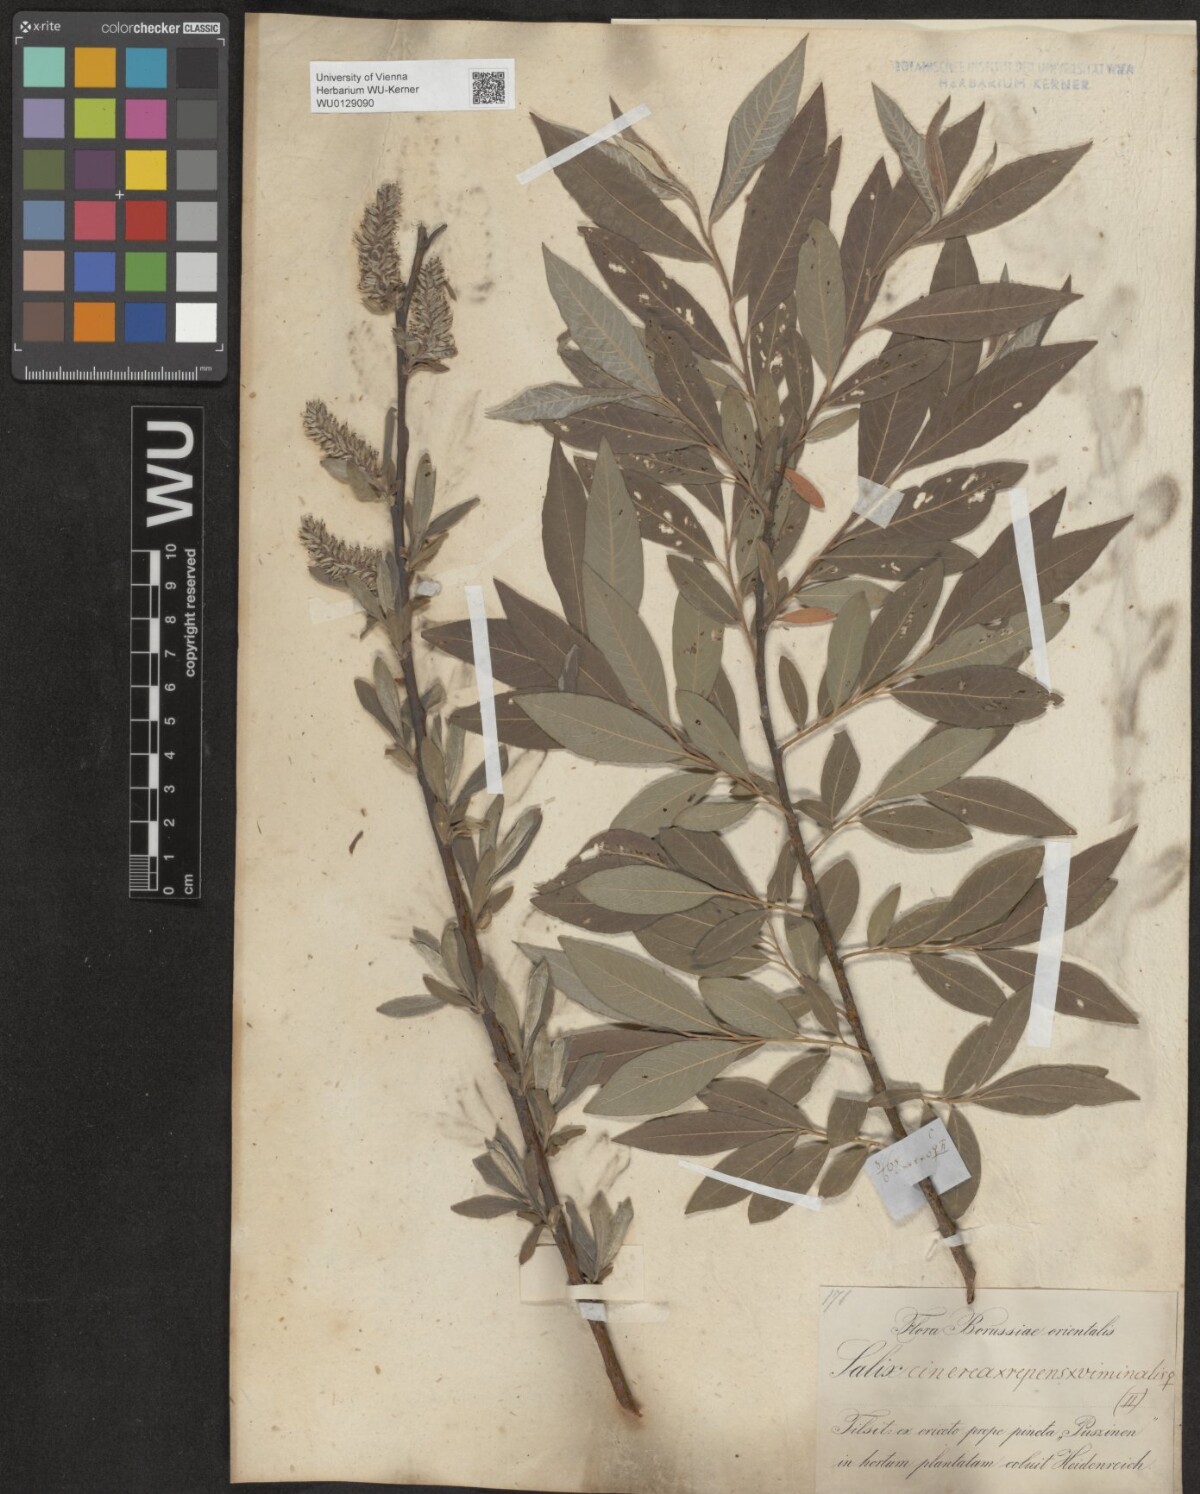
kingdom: Plantae
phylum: Tracheophyta
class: Magnoliopsida
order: Malpighiales
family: Salicaceae
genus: Salix
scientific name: Salix
